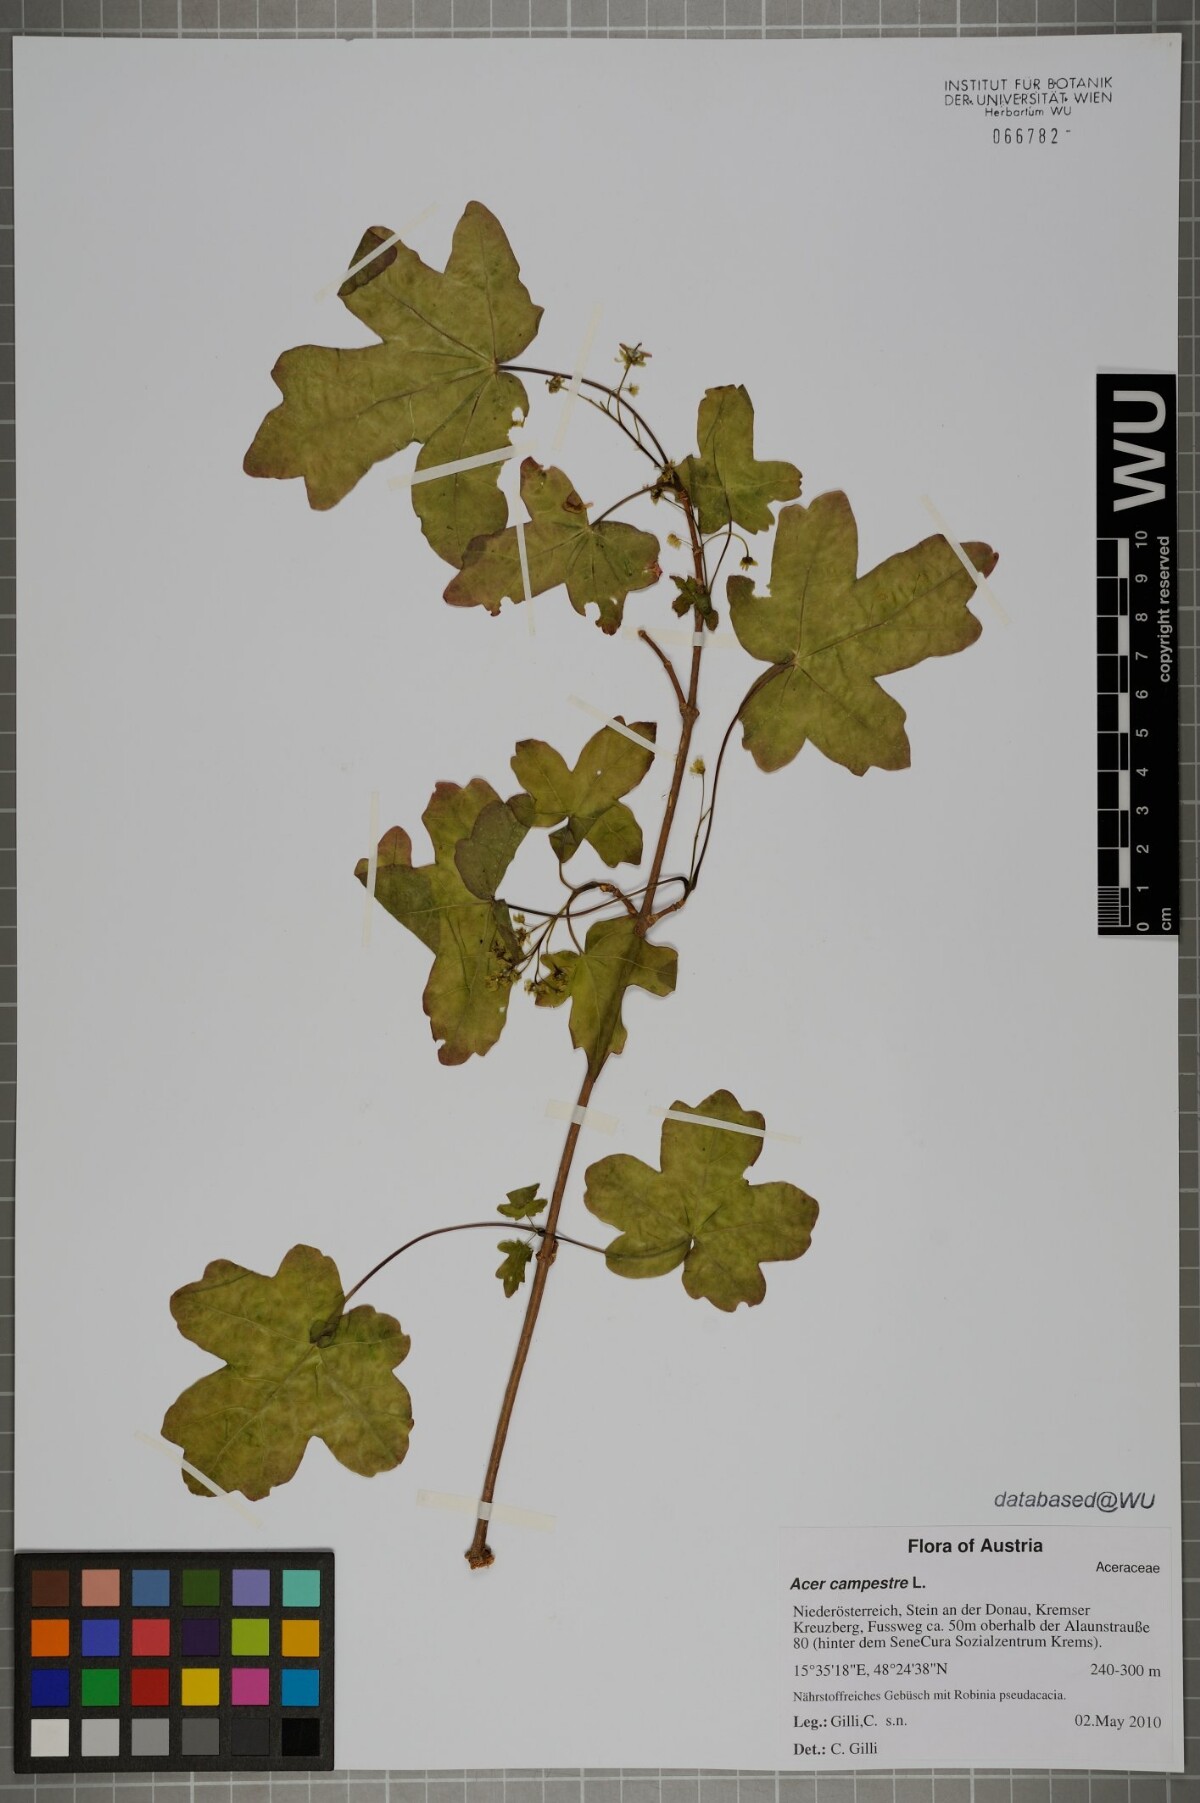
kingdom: Plantae
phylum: Tracheophyta
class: Magnoliopsida
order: Sapindales
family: Sapindaceae
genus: Acer
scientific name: Acer campestre
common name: Field maple
